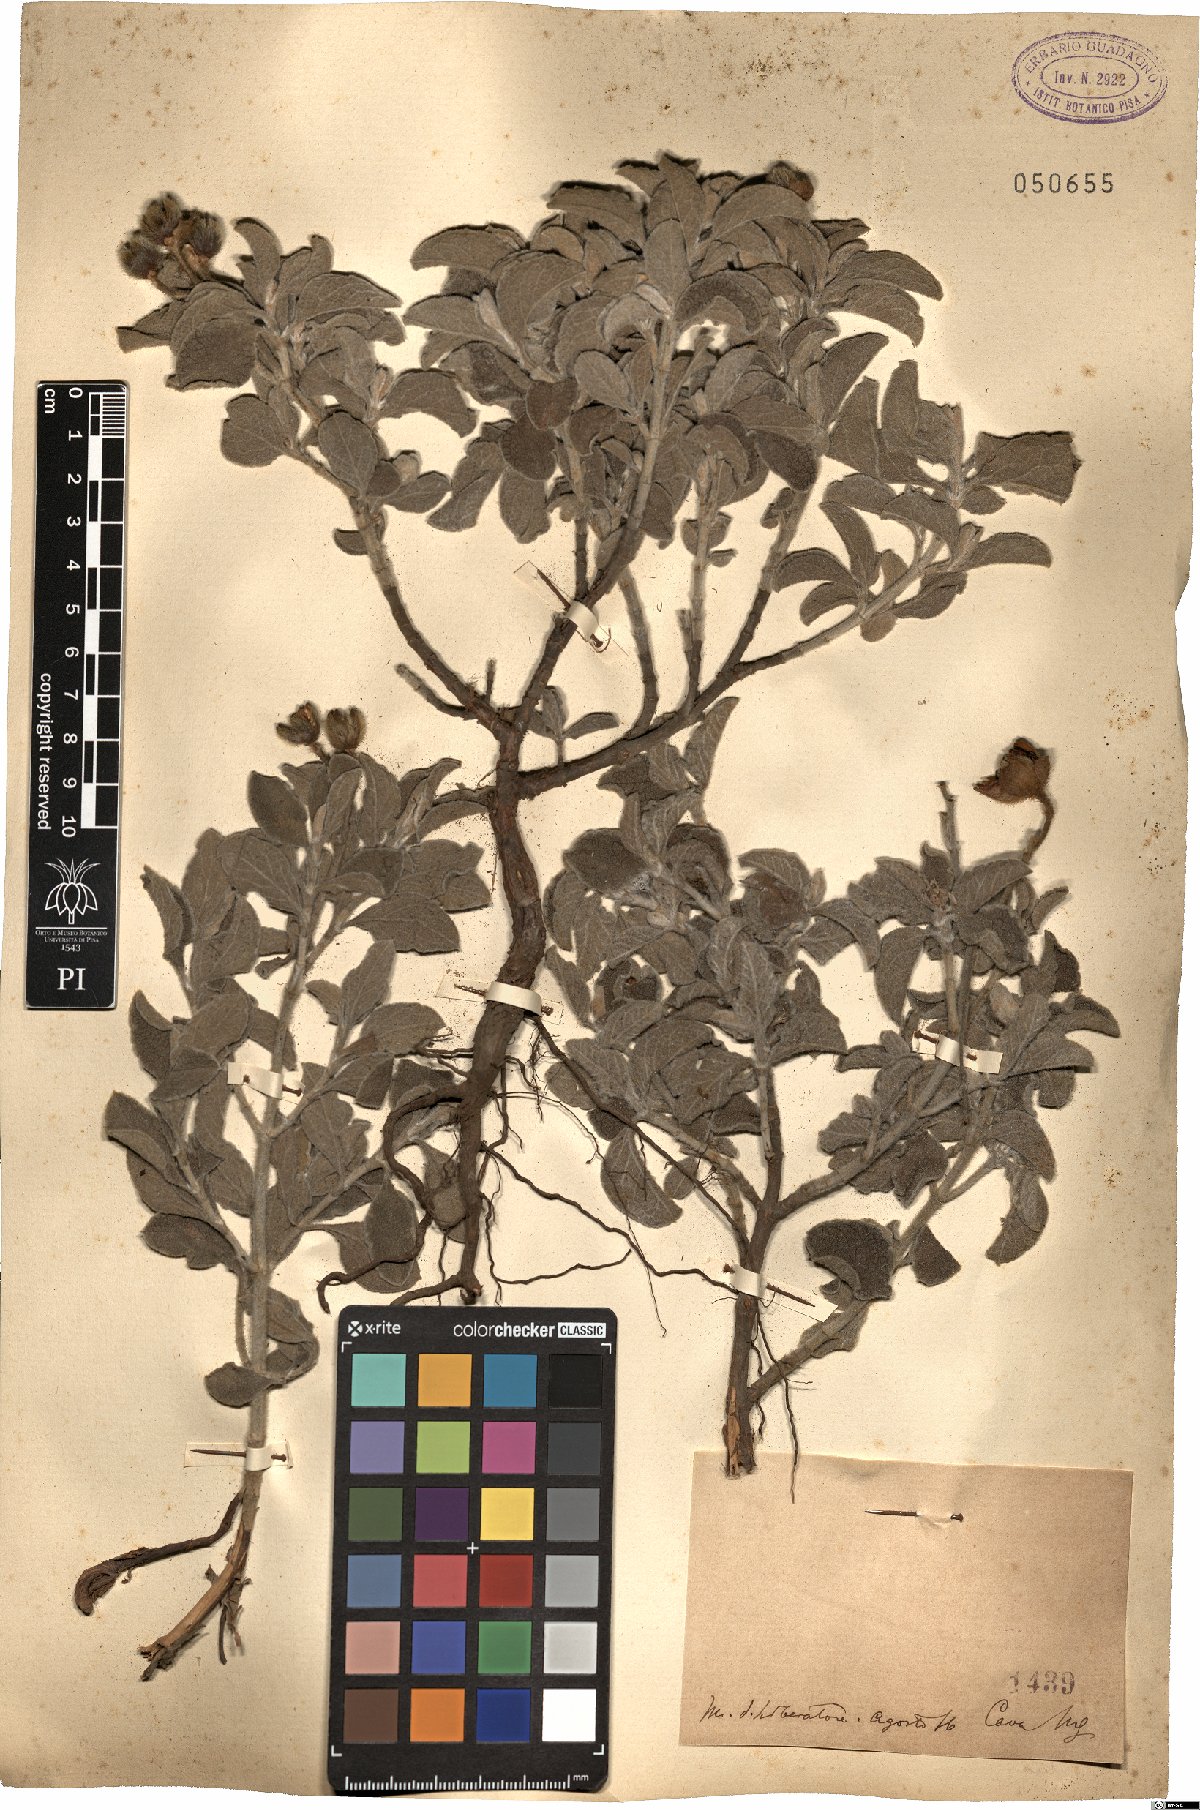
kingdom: Plantae
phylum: Tracheophyta
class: Magnoliopsida
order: Malvales
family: Cistaceae
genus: Cistus
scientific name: Cistus
